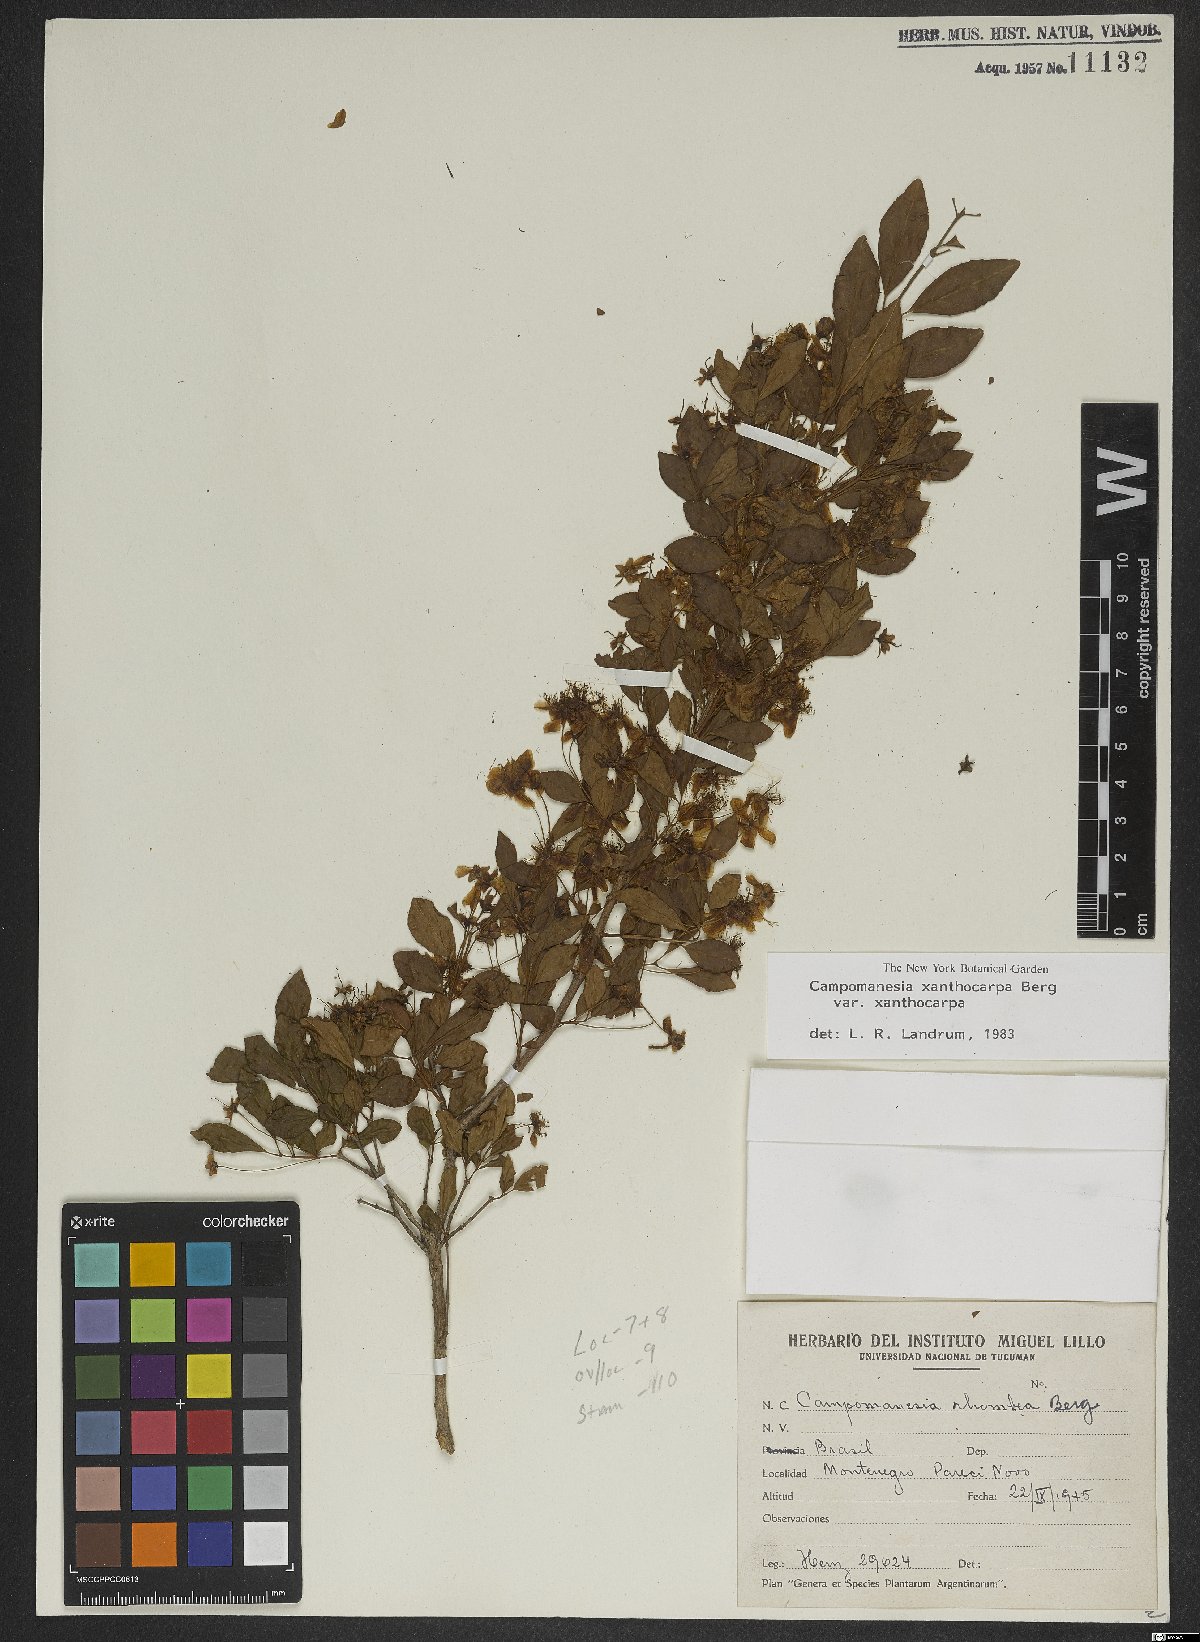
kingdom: Plantae
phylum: Tracheophyta
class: Magnoliopsida
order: Myrtales
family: Myrtaceae
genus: Campomanesia
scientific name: Campomanesia xanthocarpa
